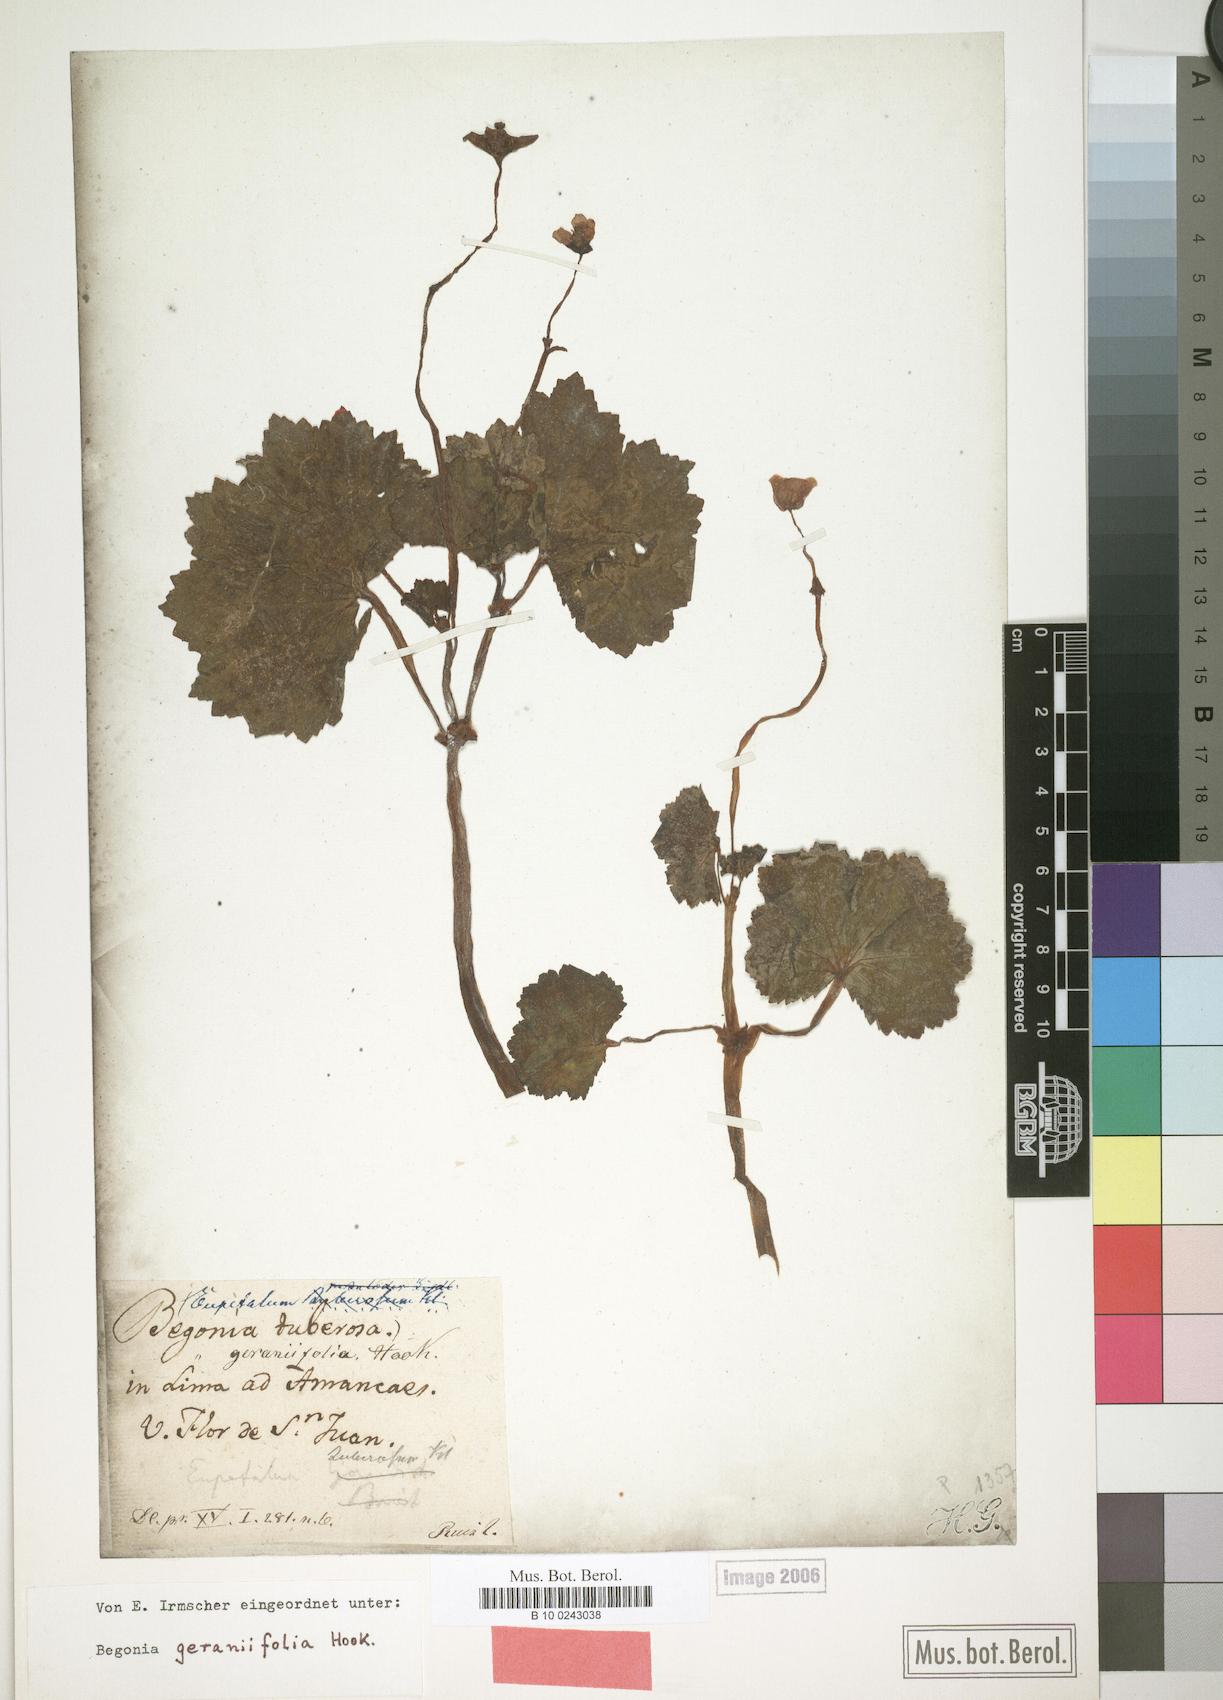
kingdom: Plantae
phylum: Tracheophyta
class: Magnoliopsida
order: Cucurbitales
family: Begoniaceae
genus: Begonia
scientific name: Begonia geraniifolia
